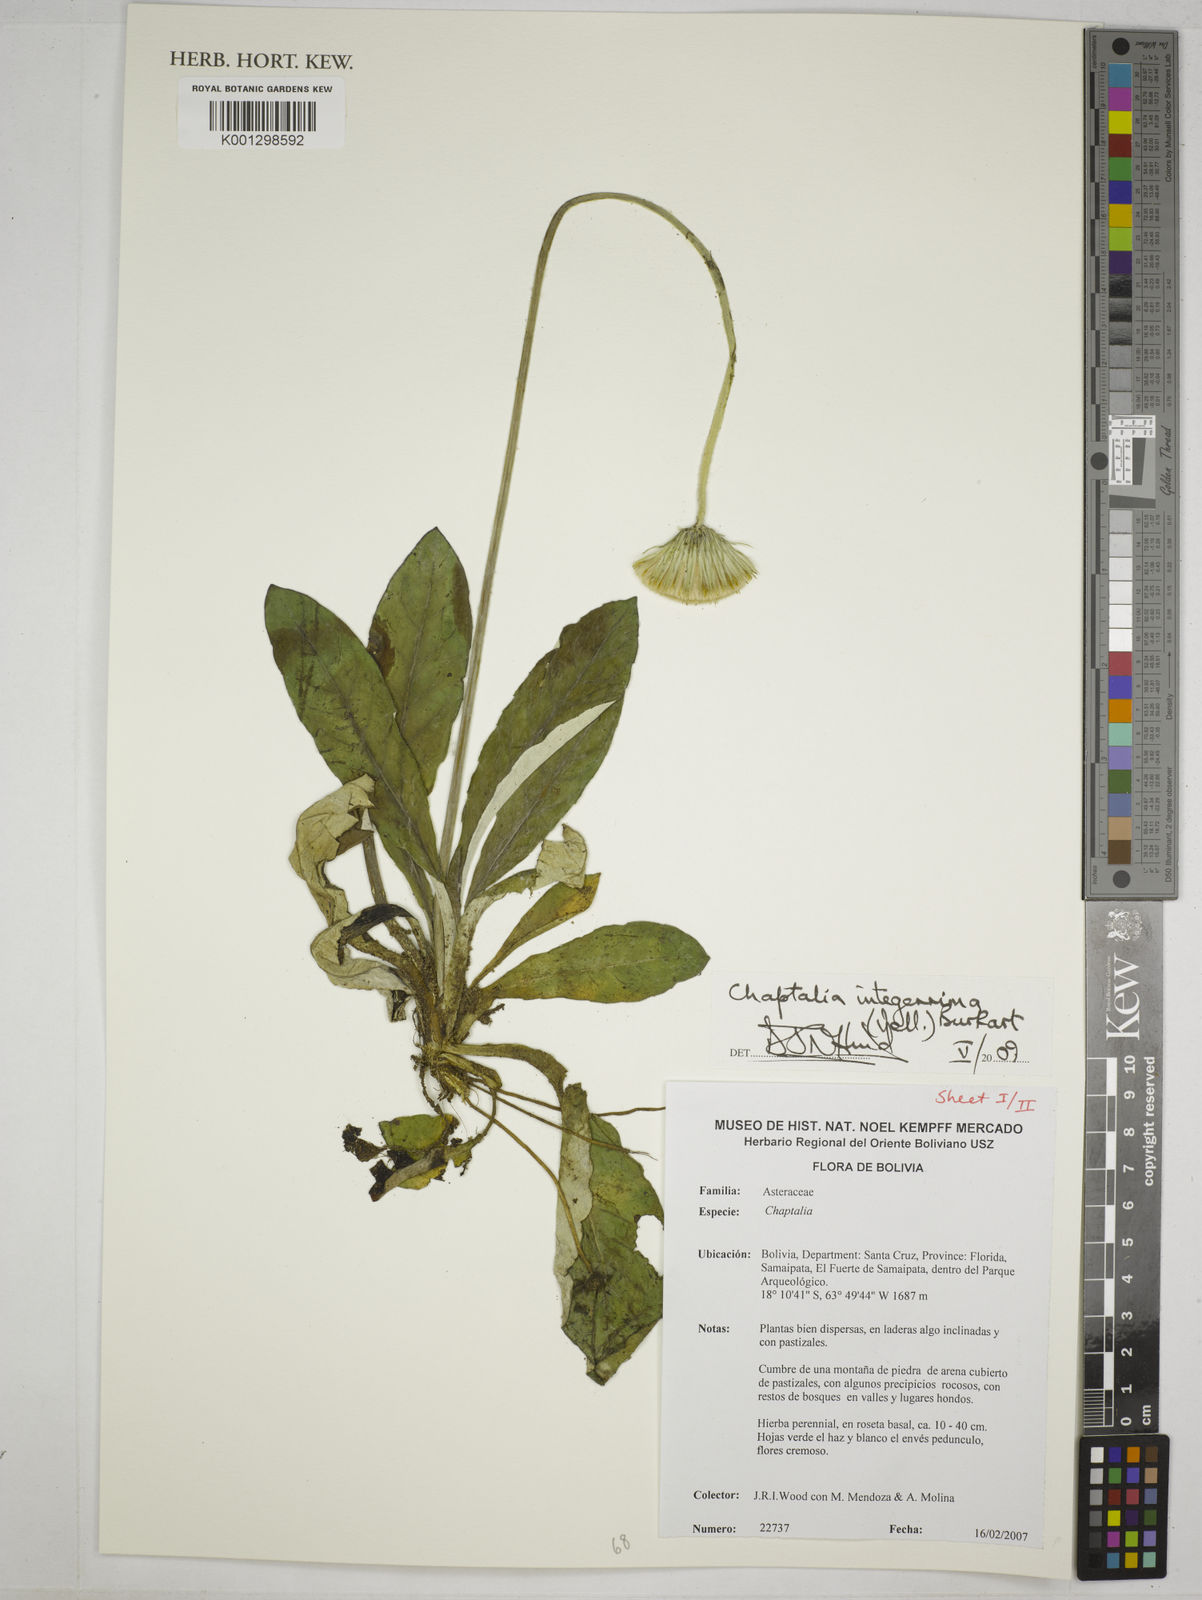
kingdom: Plantae
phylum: Tracheophyta
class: Magnoliopsida
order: Asterales
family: Asteraceae
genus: Chaptalia
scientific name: Chaptalia integerrima
